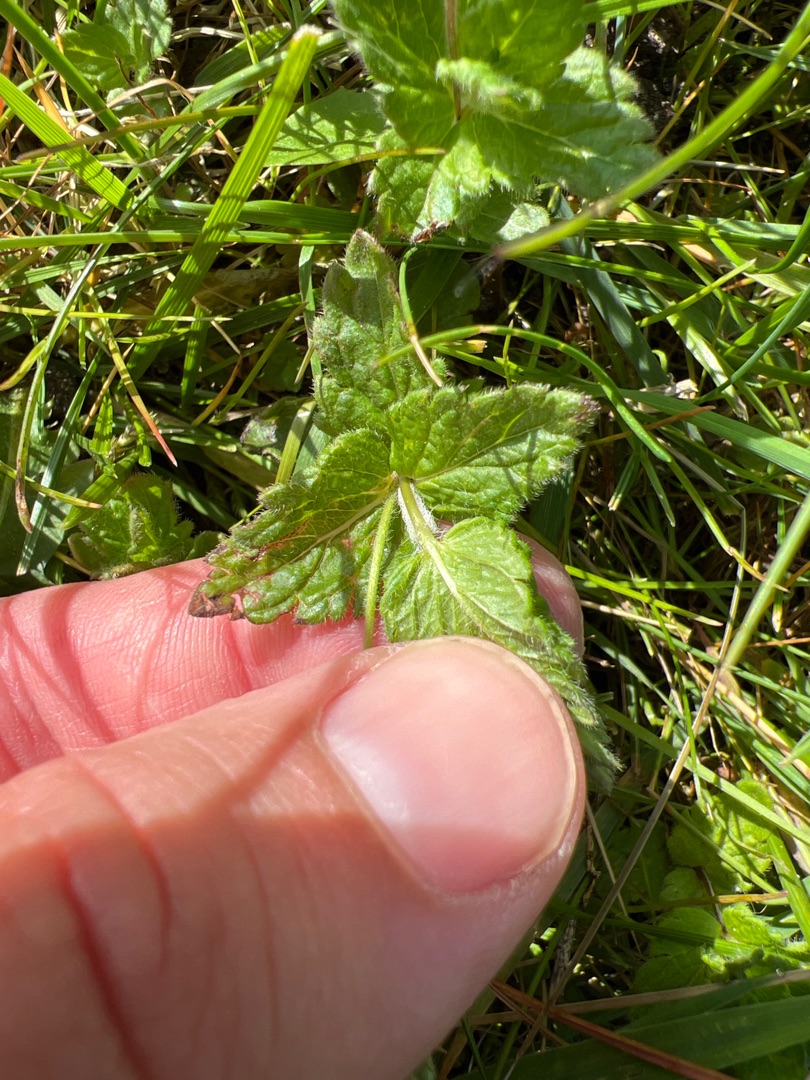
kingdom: Plantae
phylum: Tracheophyta
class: Magnoliopsida
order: Lamiales
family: Plantaginaceae
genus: Veronica
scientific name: Veronica chamaedrys
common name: Tveskægget ærenpris
